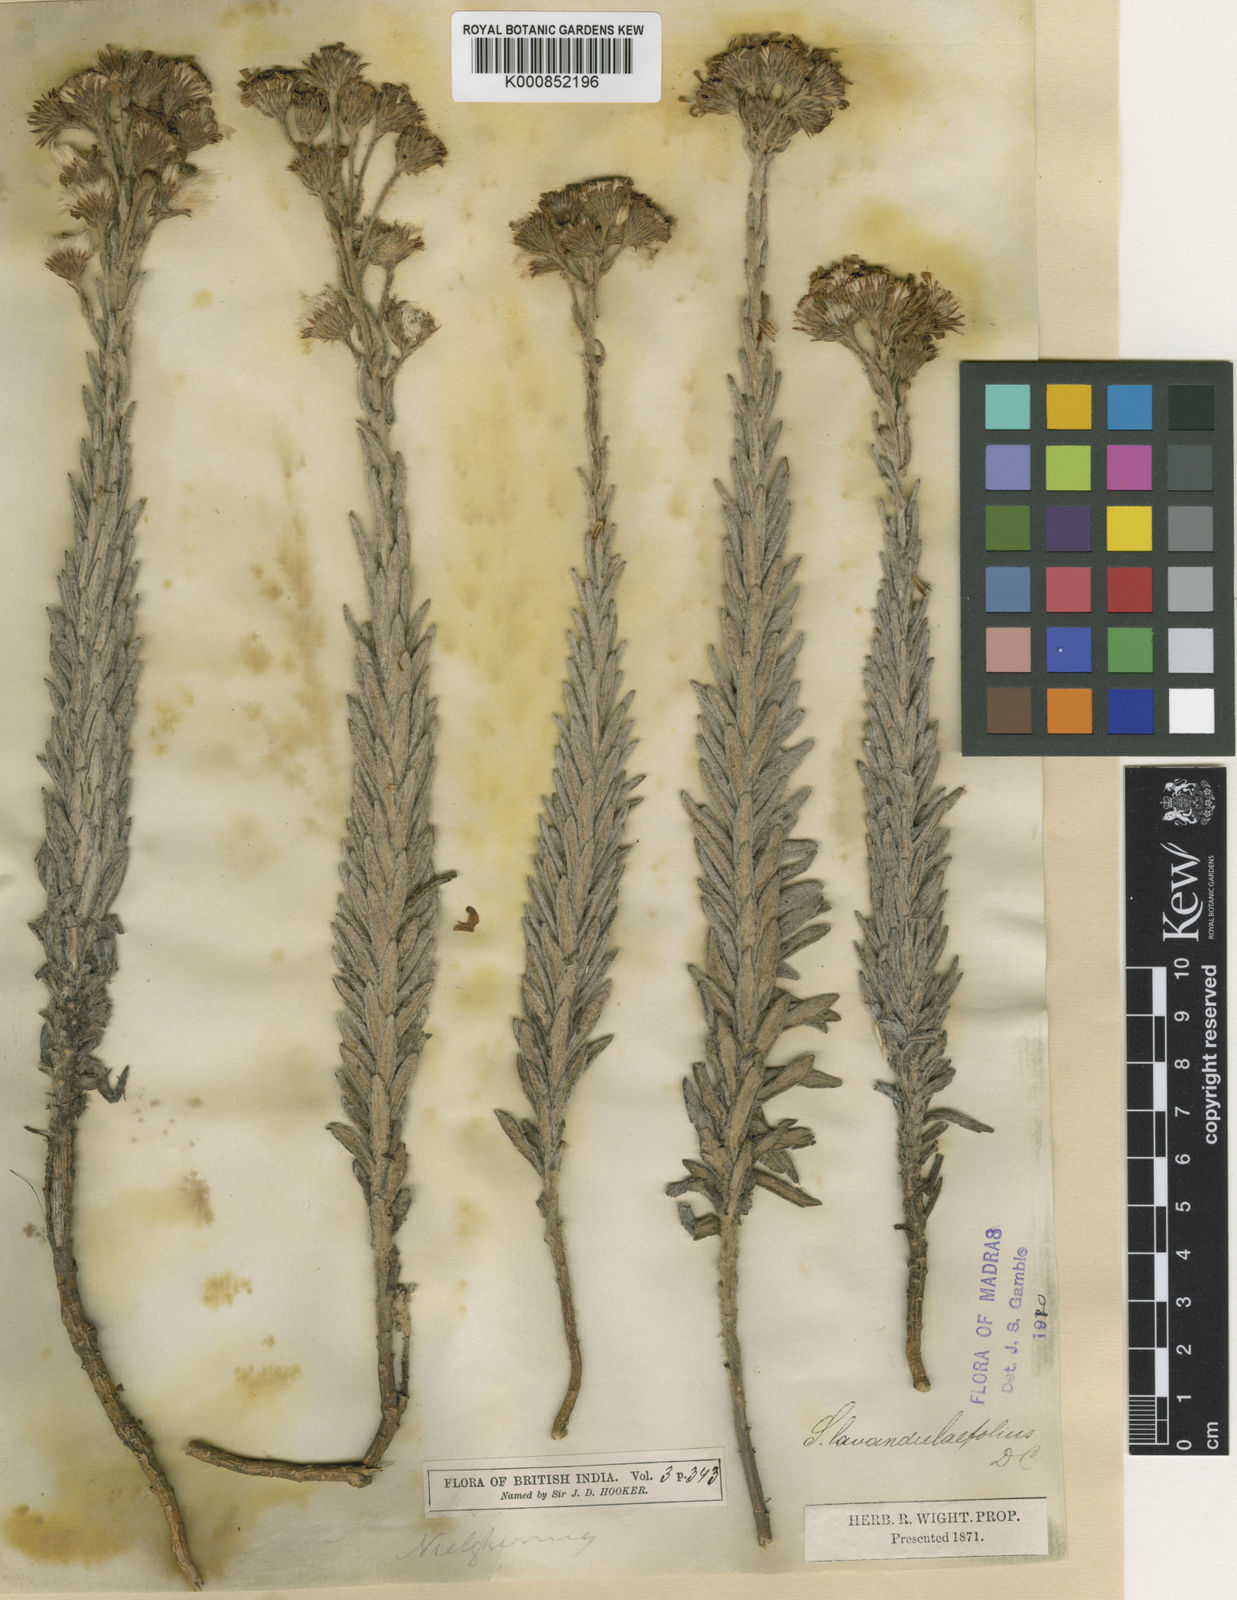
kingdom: Plantae
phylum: Tracheophyta
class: Magnoliopsida
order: Asterales
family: Asteraceae
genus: Senecio
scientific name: Senecio
